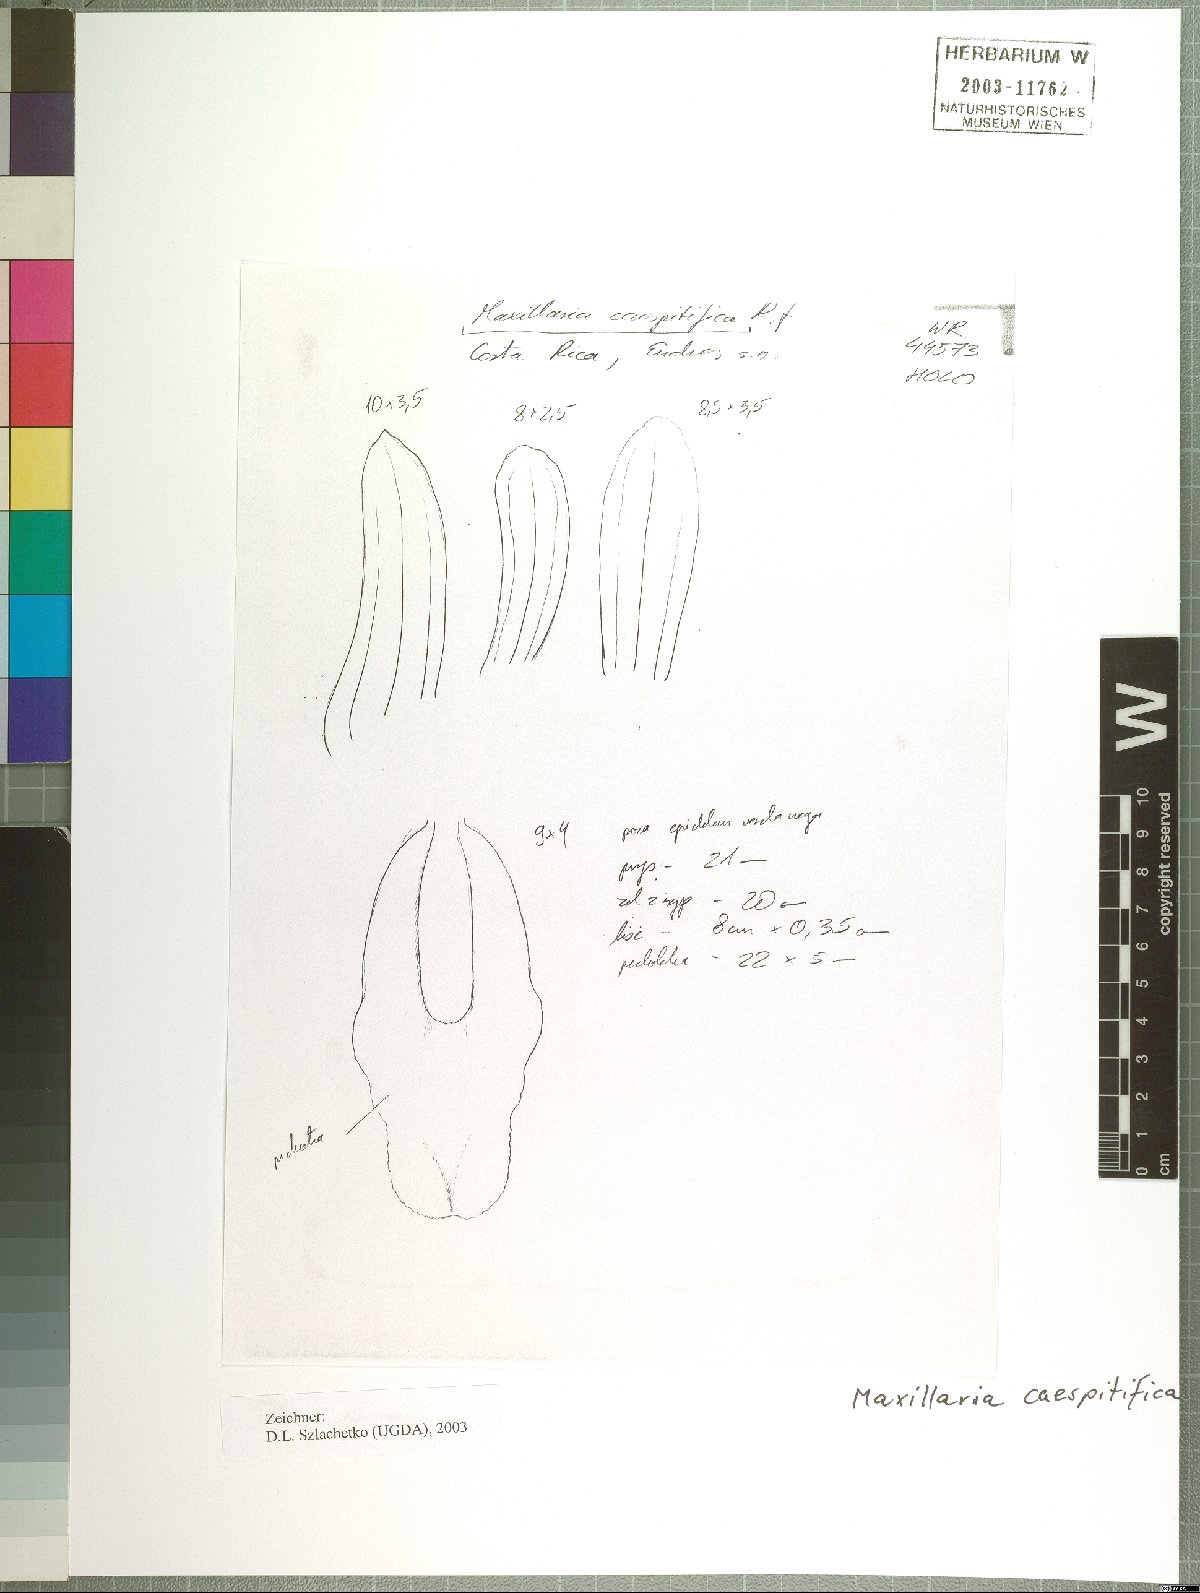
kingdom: Plantae
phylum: Tracheophyta
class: Liliopsida
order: Asparagales
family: Orchidaceae
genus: Maxillaria
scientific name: Maxillaria caespitifica
